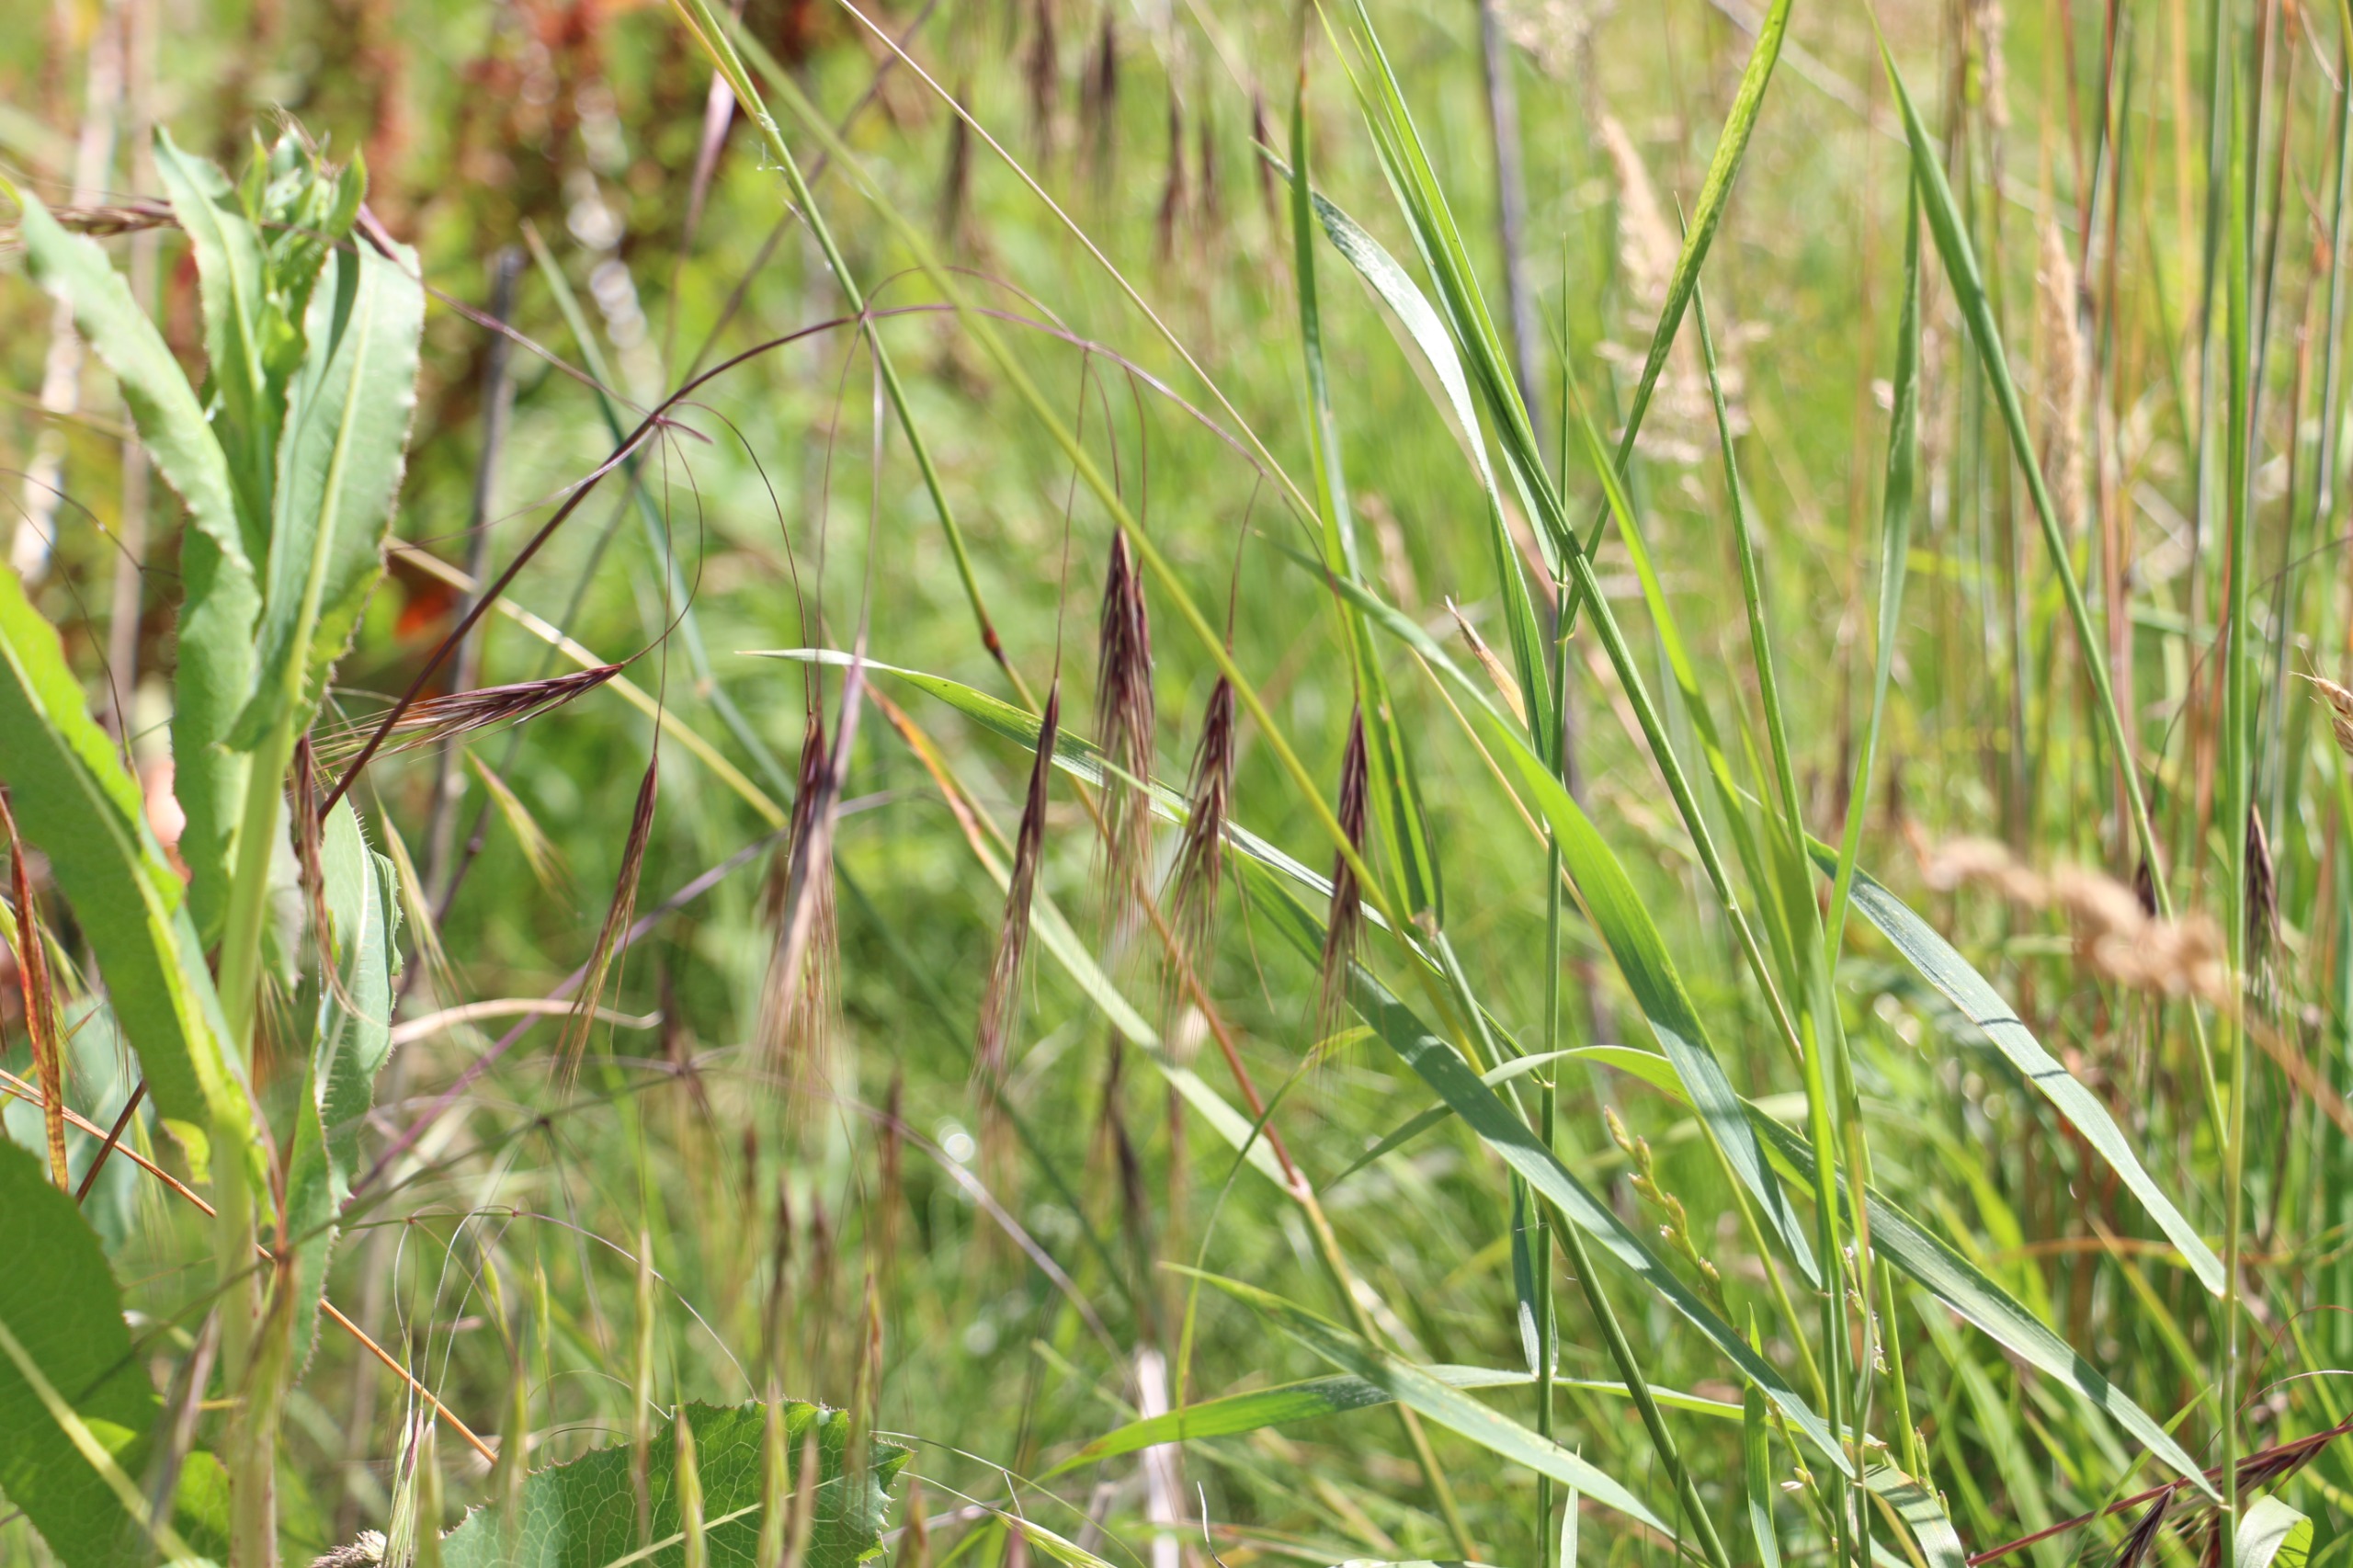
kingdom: Plantae
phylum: Tracheophyta
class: Liliopsida
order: Poales
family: Poaceae
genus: Bromus
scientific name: Bromus sterilis
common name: Gold hejre
